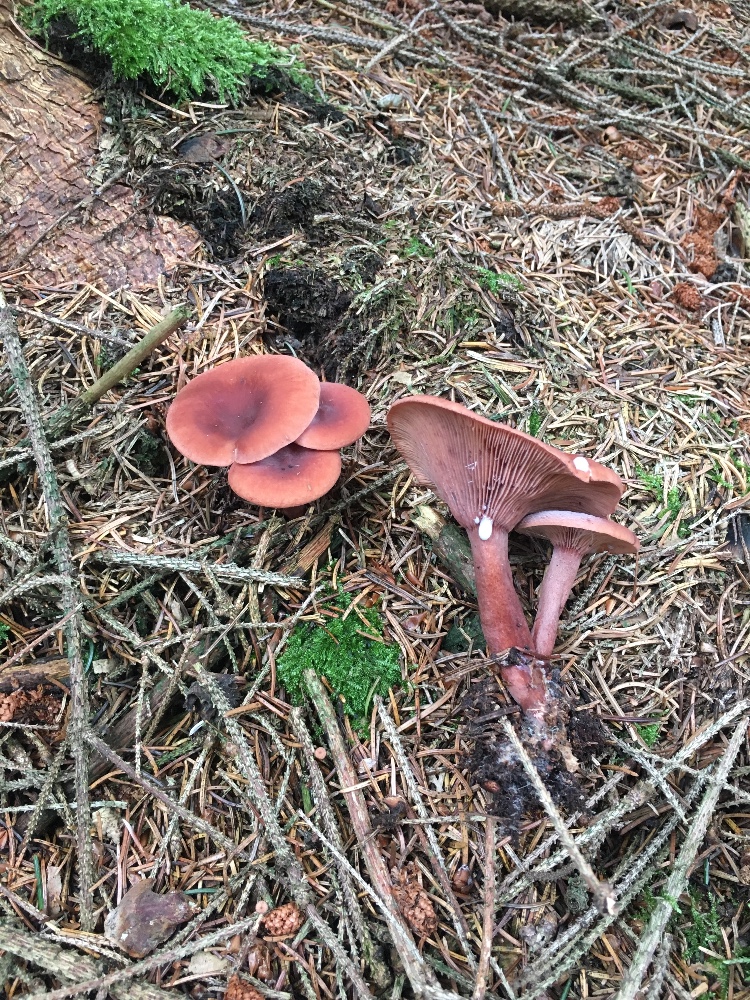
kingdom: Fungi
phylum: Basidiomycota
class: Agaricomycetes
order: Russulales
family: Russulaceae
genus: Lactarius
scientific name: Lactarius camphoratus
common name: kamfer-mælkehat
